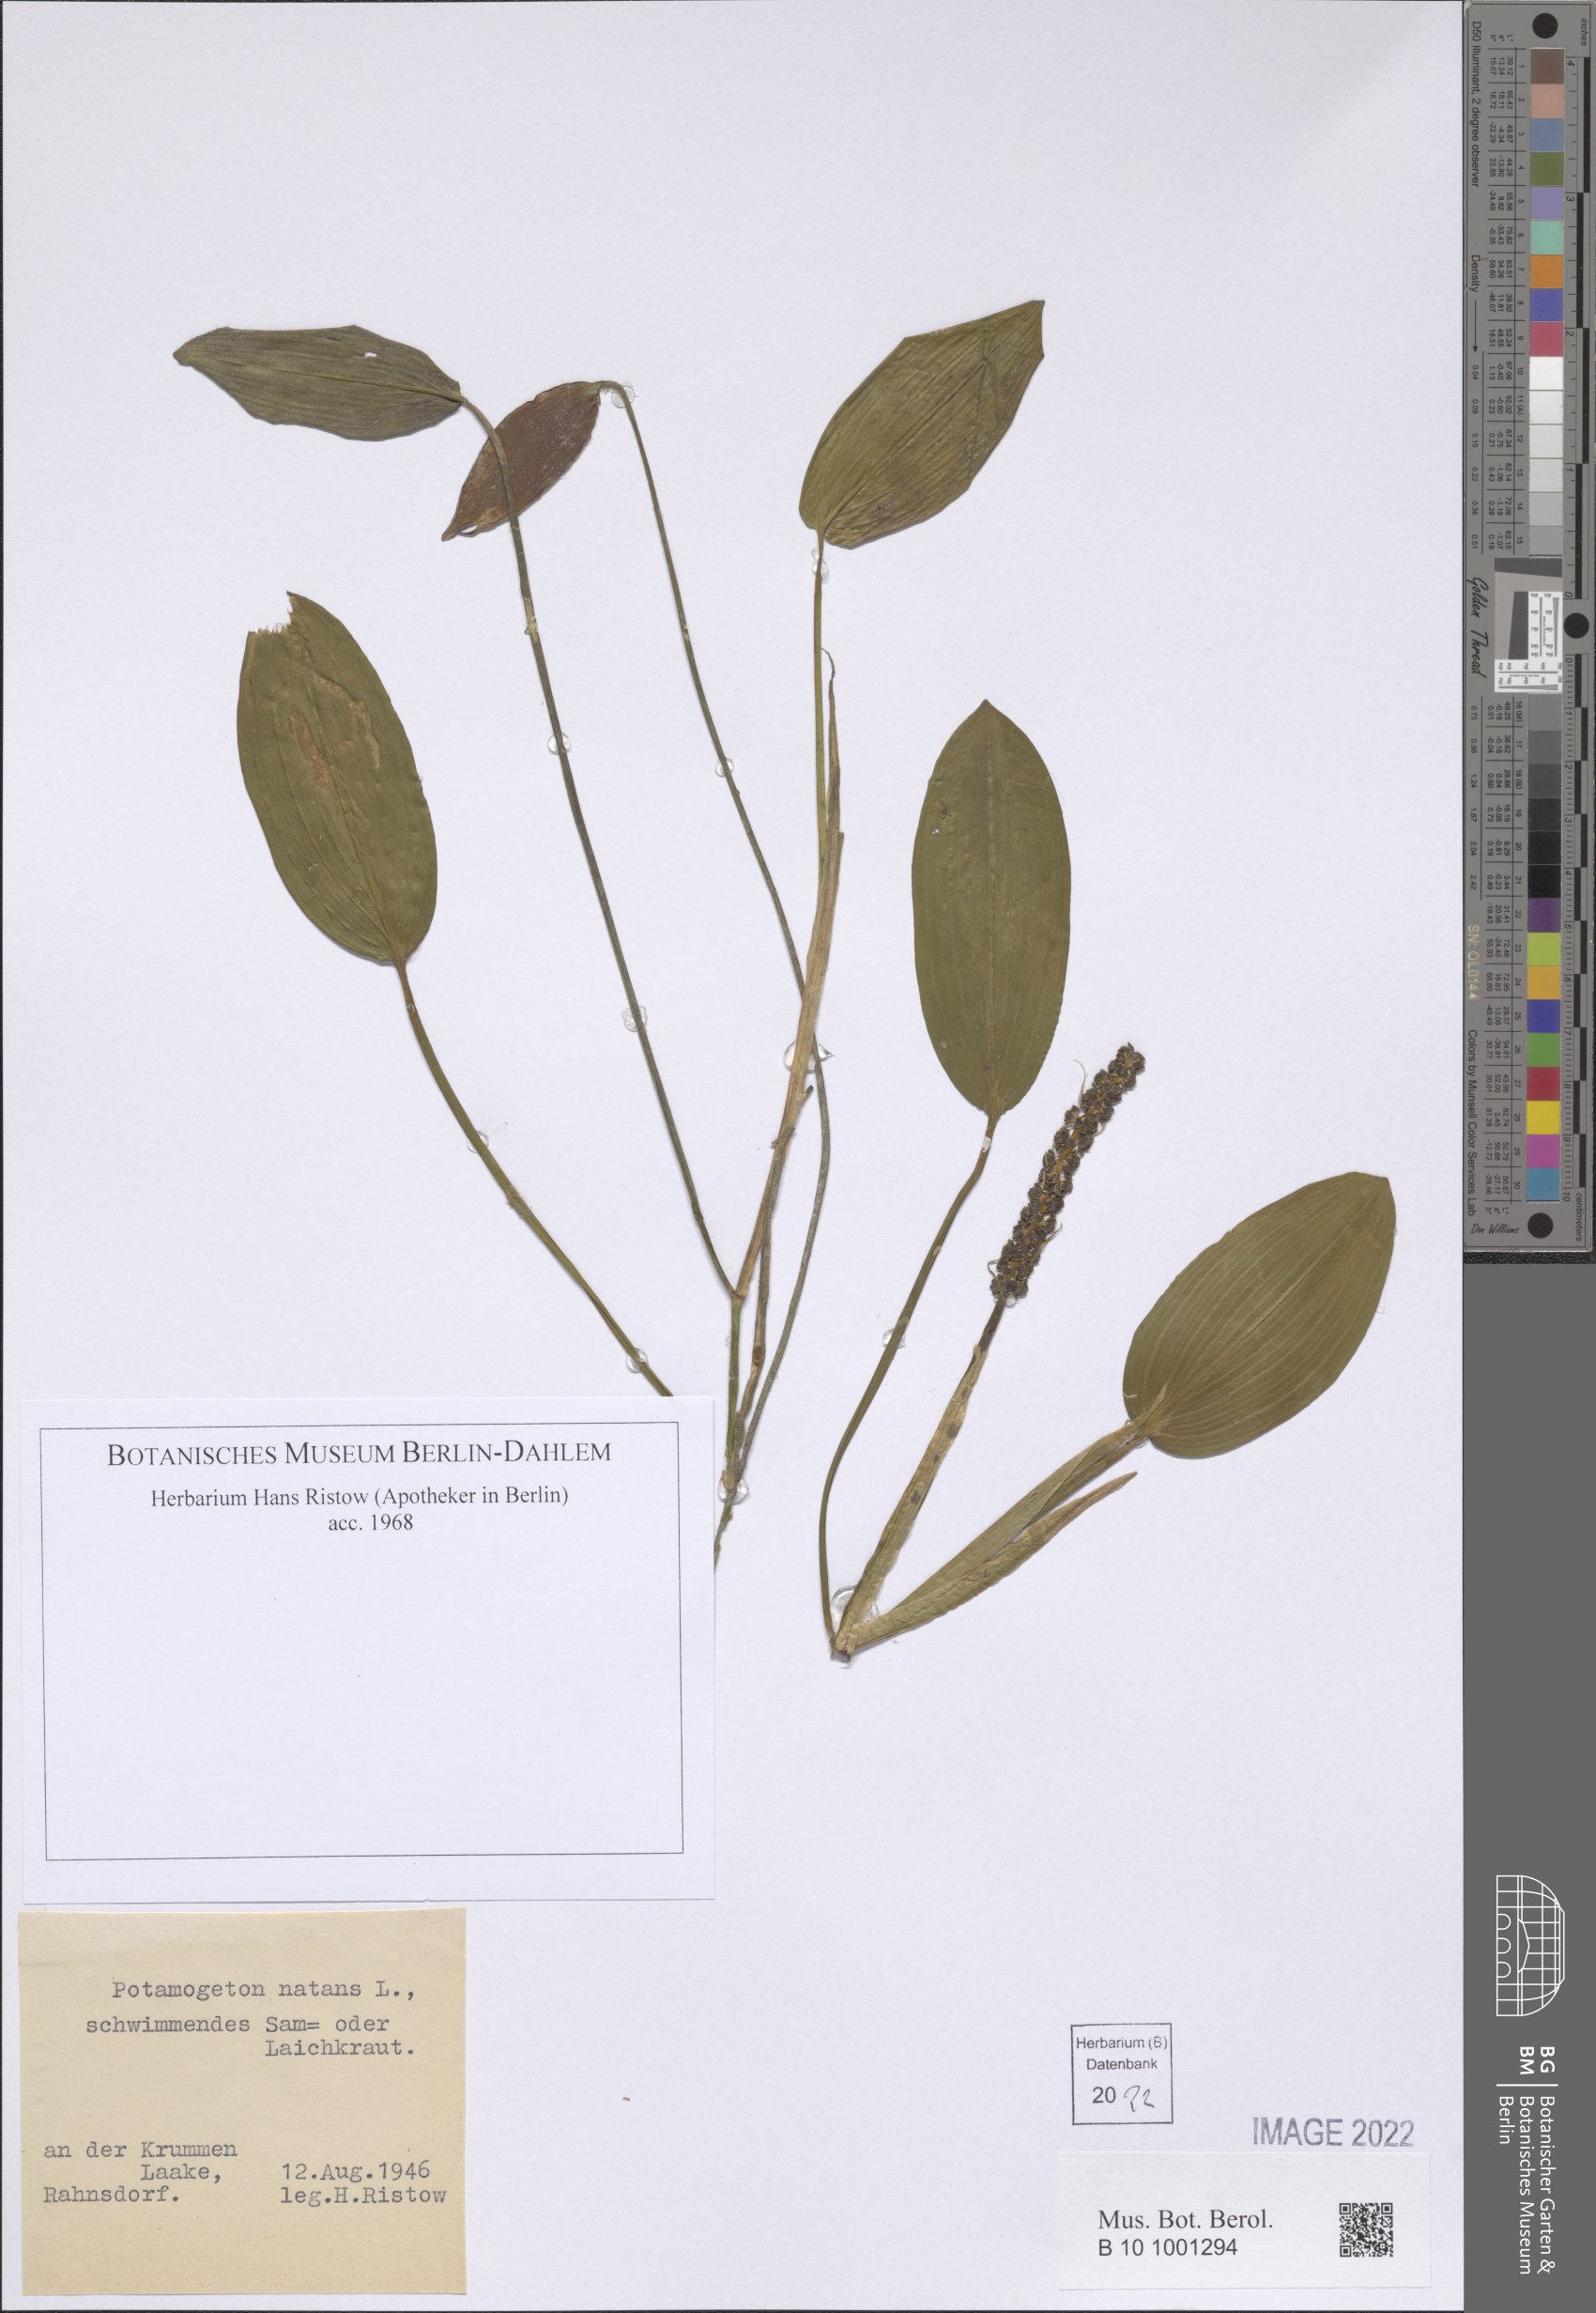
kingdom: Plantae
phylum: Tracheophyta
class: Liliopsida
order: Alismatales
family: Potamogetonaceae
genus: Potamogeton
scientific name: Potamogeton natans
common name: Broad-leaved pondweed
